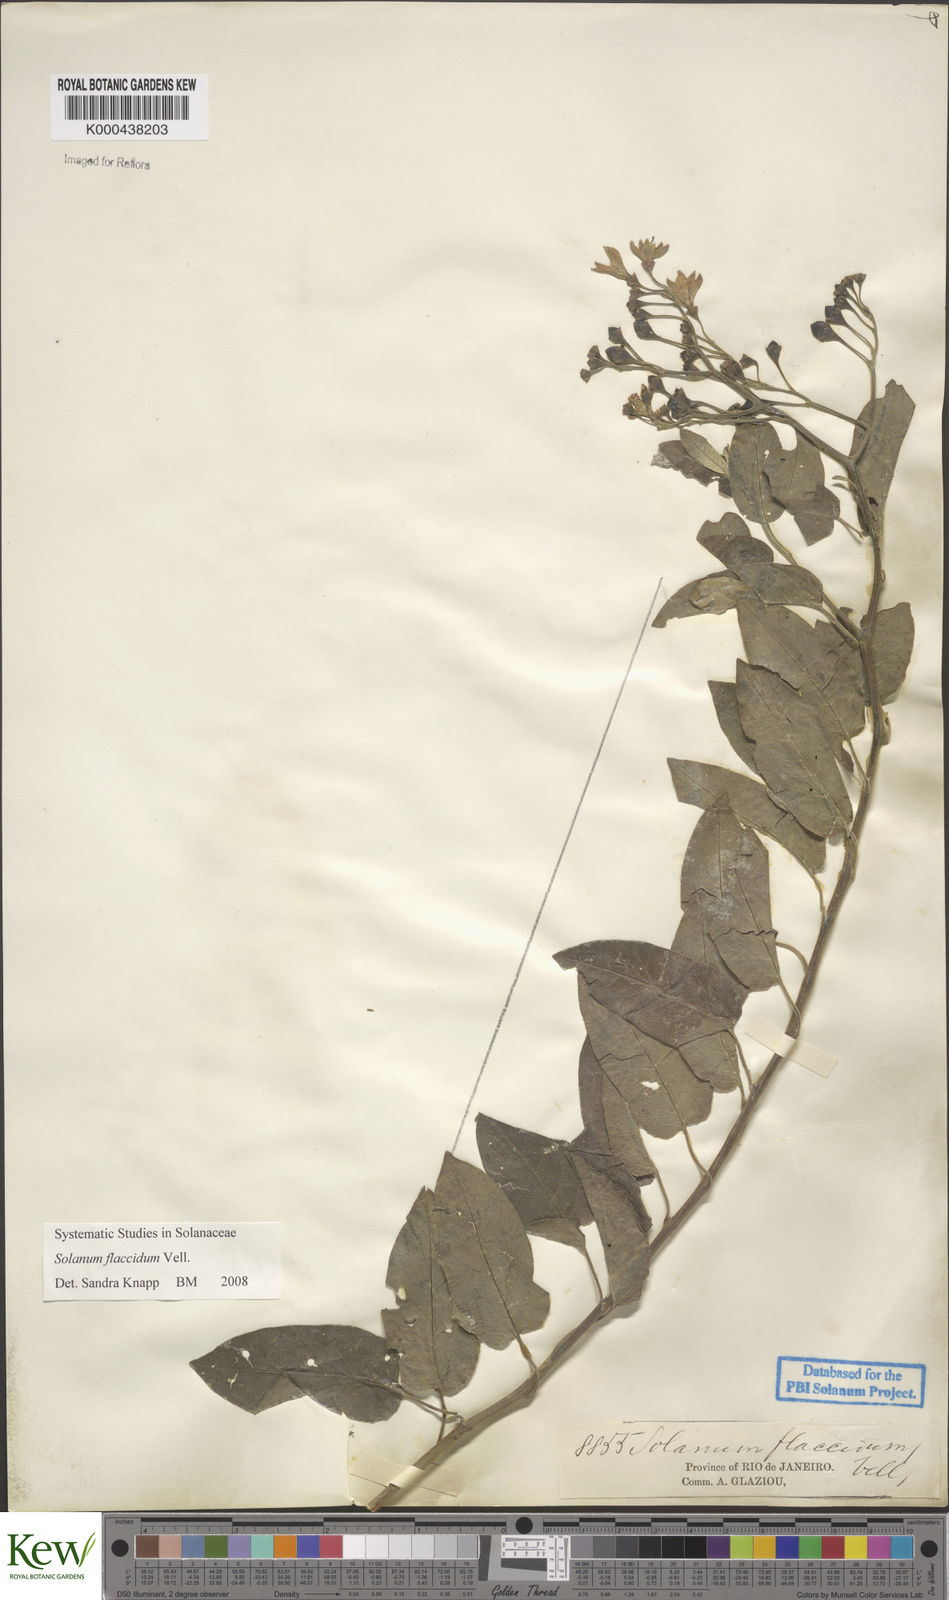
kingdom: Plantae
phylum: Tracheophyta
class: Magnoliopsida
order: Solanales
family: Solanaceae
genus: Solanum
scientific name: Solanum flaccidum
